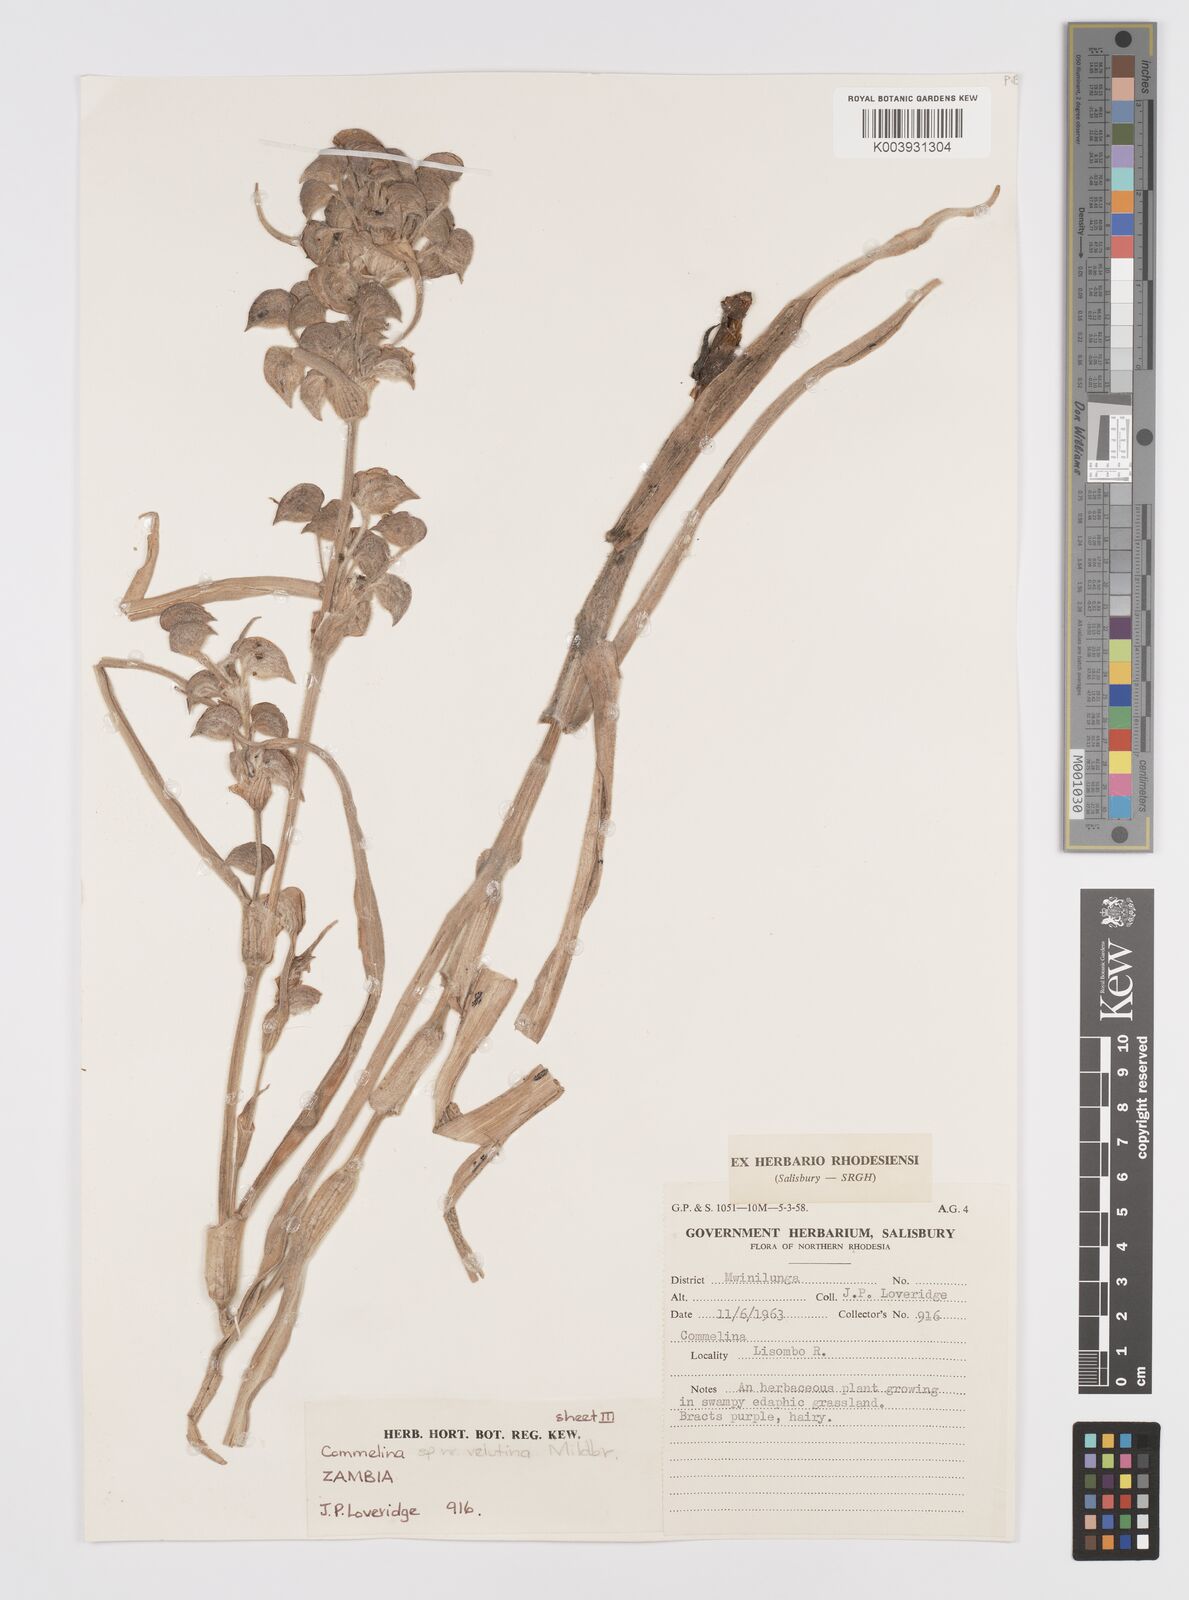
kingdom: Plantae
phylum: Tracheophyta
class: Liliopsida
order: Commelinales
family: Commelinaceae
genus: Commelina
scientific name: Commelina velutina
